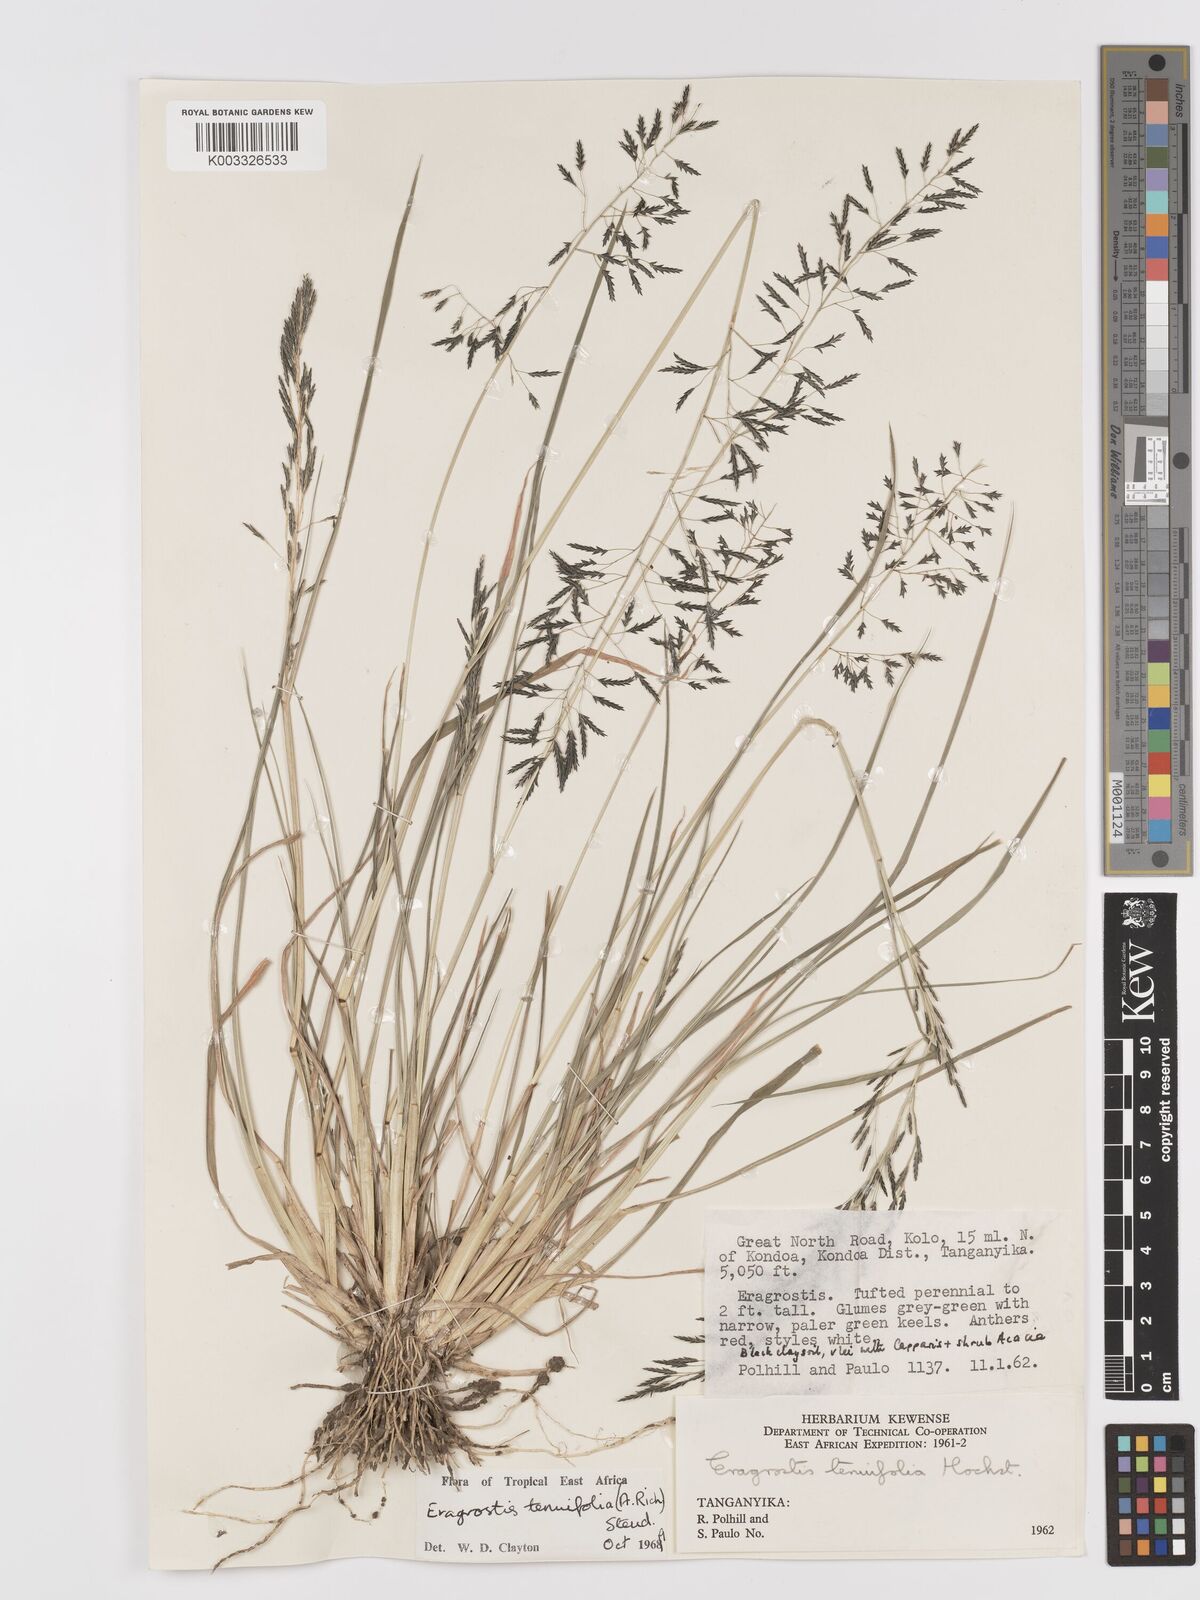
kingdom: Plantae
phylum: Tracheophyta
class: Liliopsida
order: Poales
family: Poaceae
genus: Eragrostis
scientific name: Eragrostis tenuifolia
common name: Elastic grass
